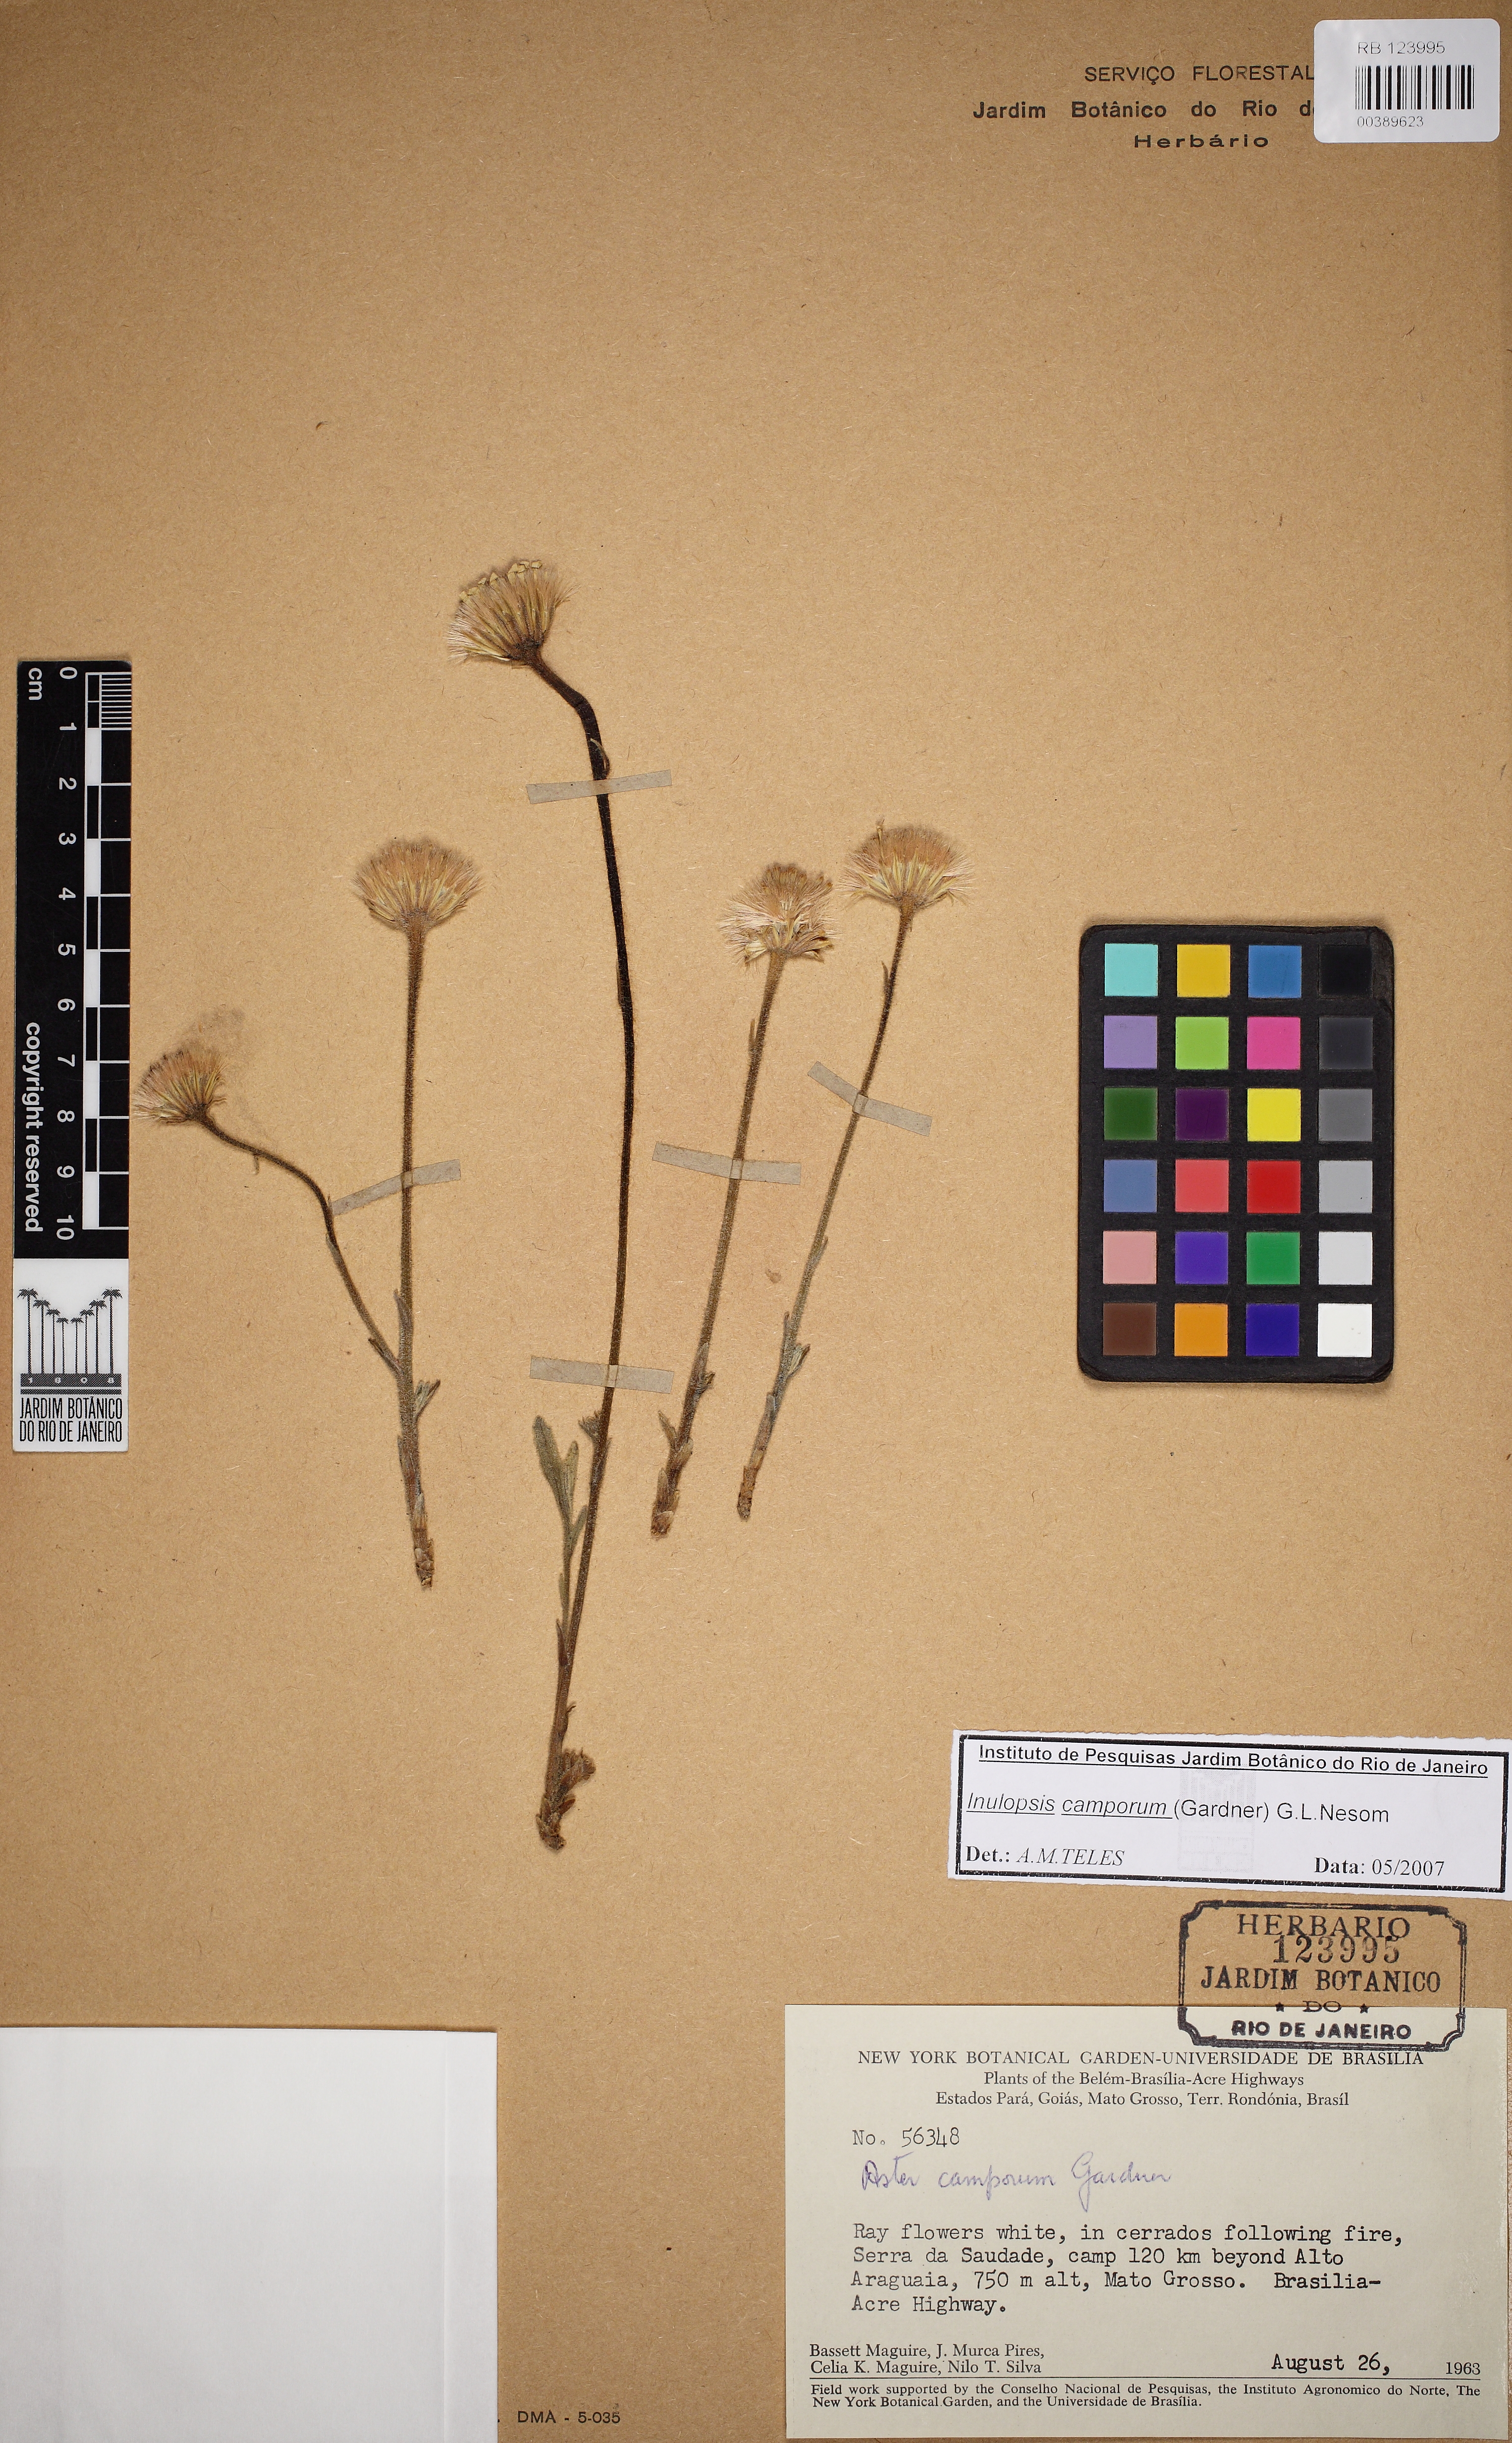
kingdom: Plantae
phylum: Tracheophyta
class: Magnoliopsida
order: Asterales
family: Asteraceae
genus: Inulopsis
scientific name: Inulopsis camporum
